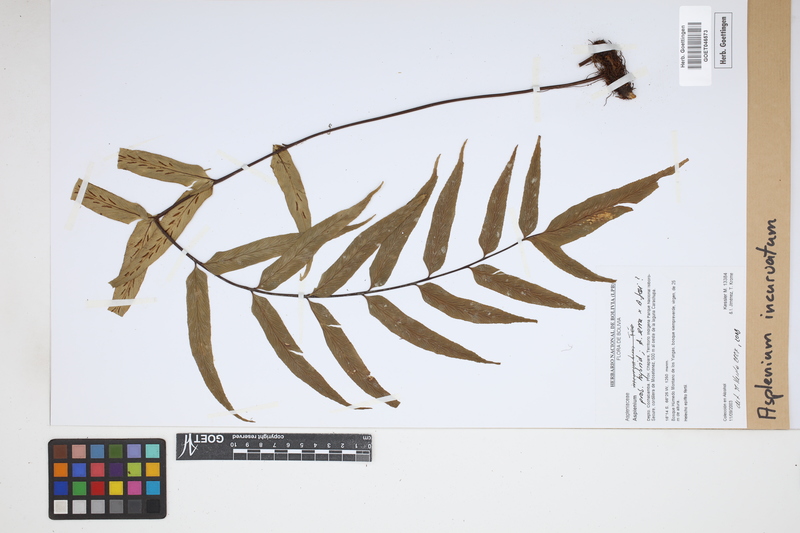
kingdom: Plantae
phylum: Tracheophyta
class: Polypodiopsida
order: Polypodiales
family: Aspleniaceae
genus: Asplenium
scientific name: Asplenium serra
